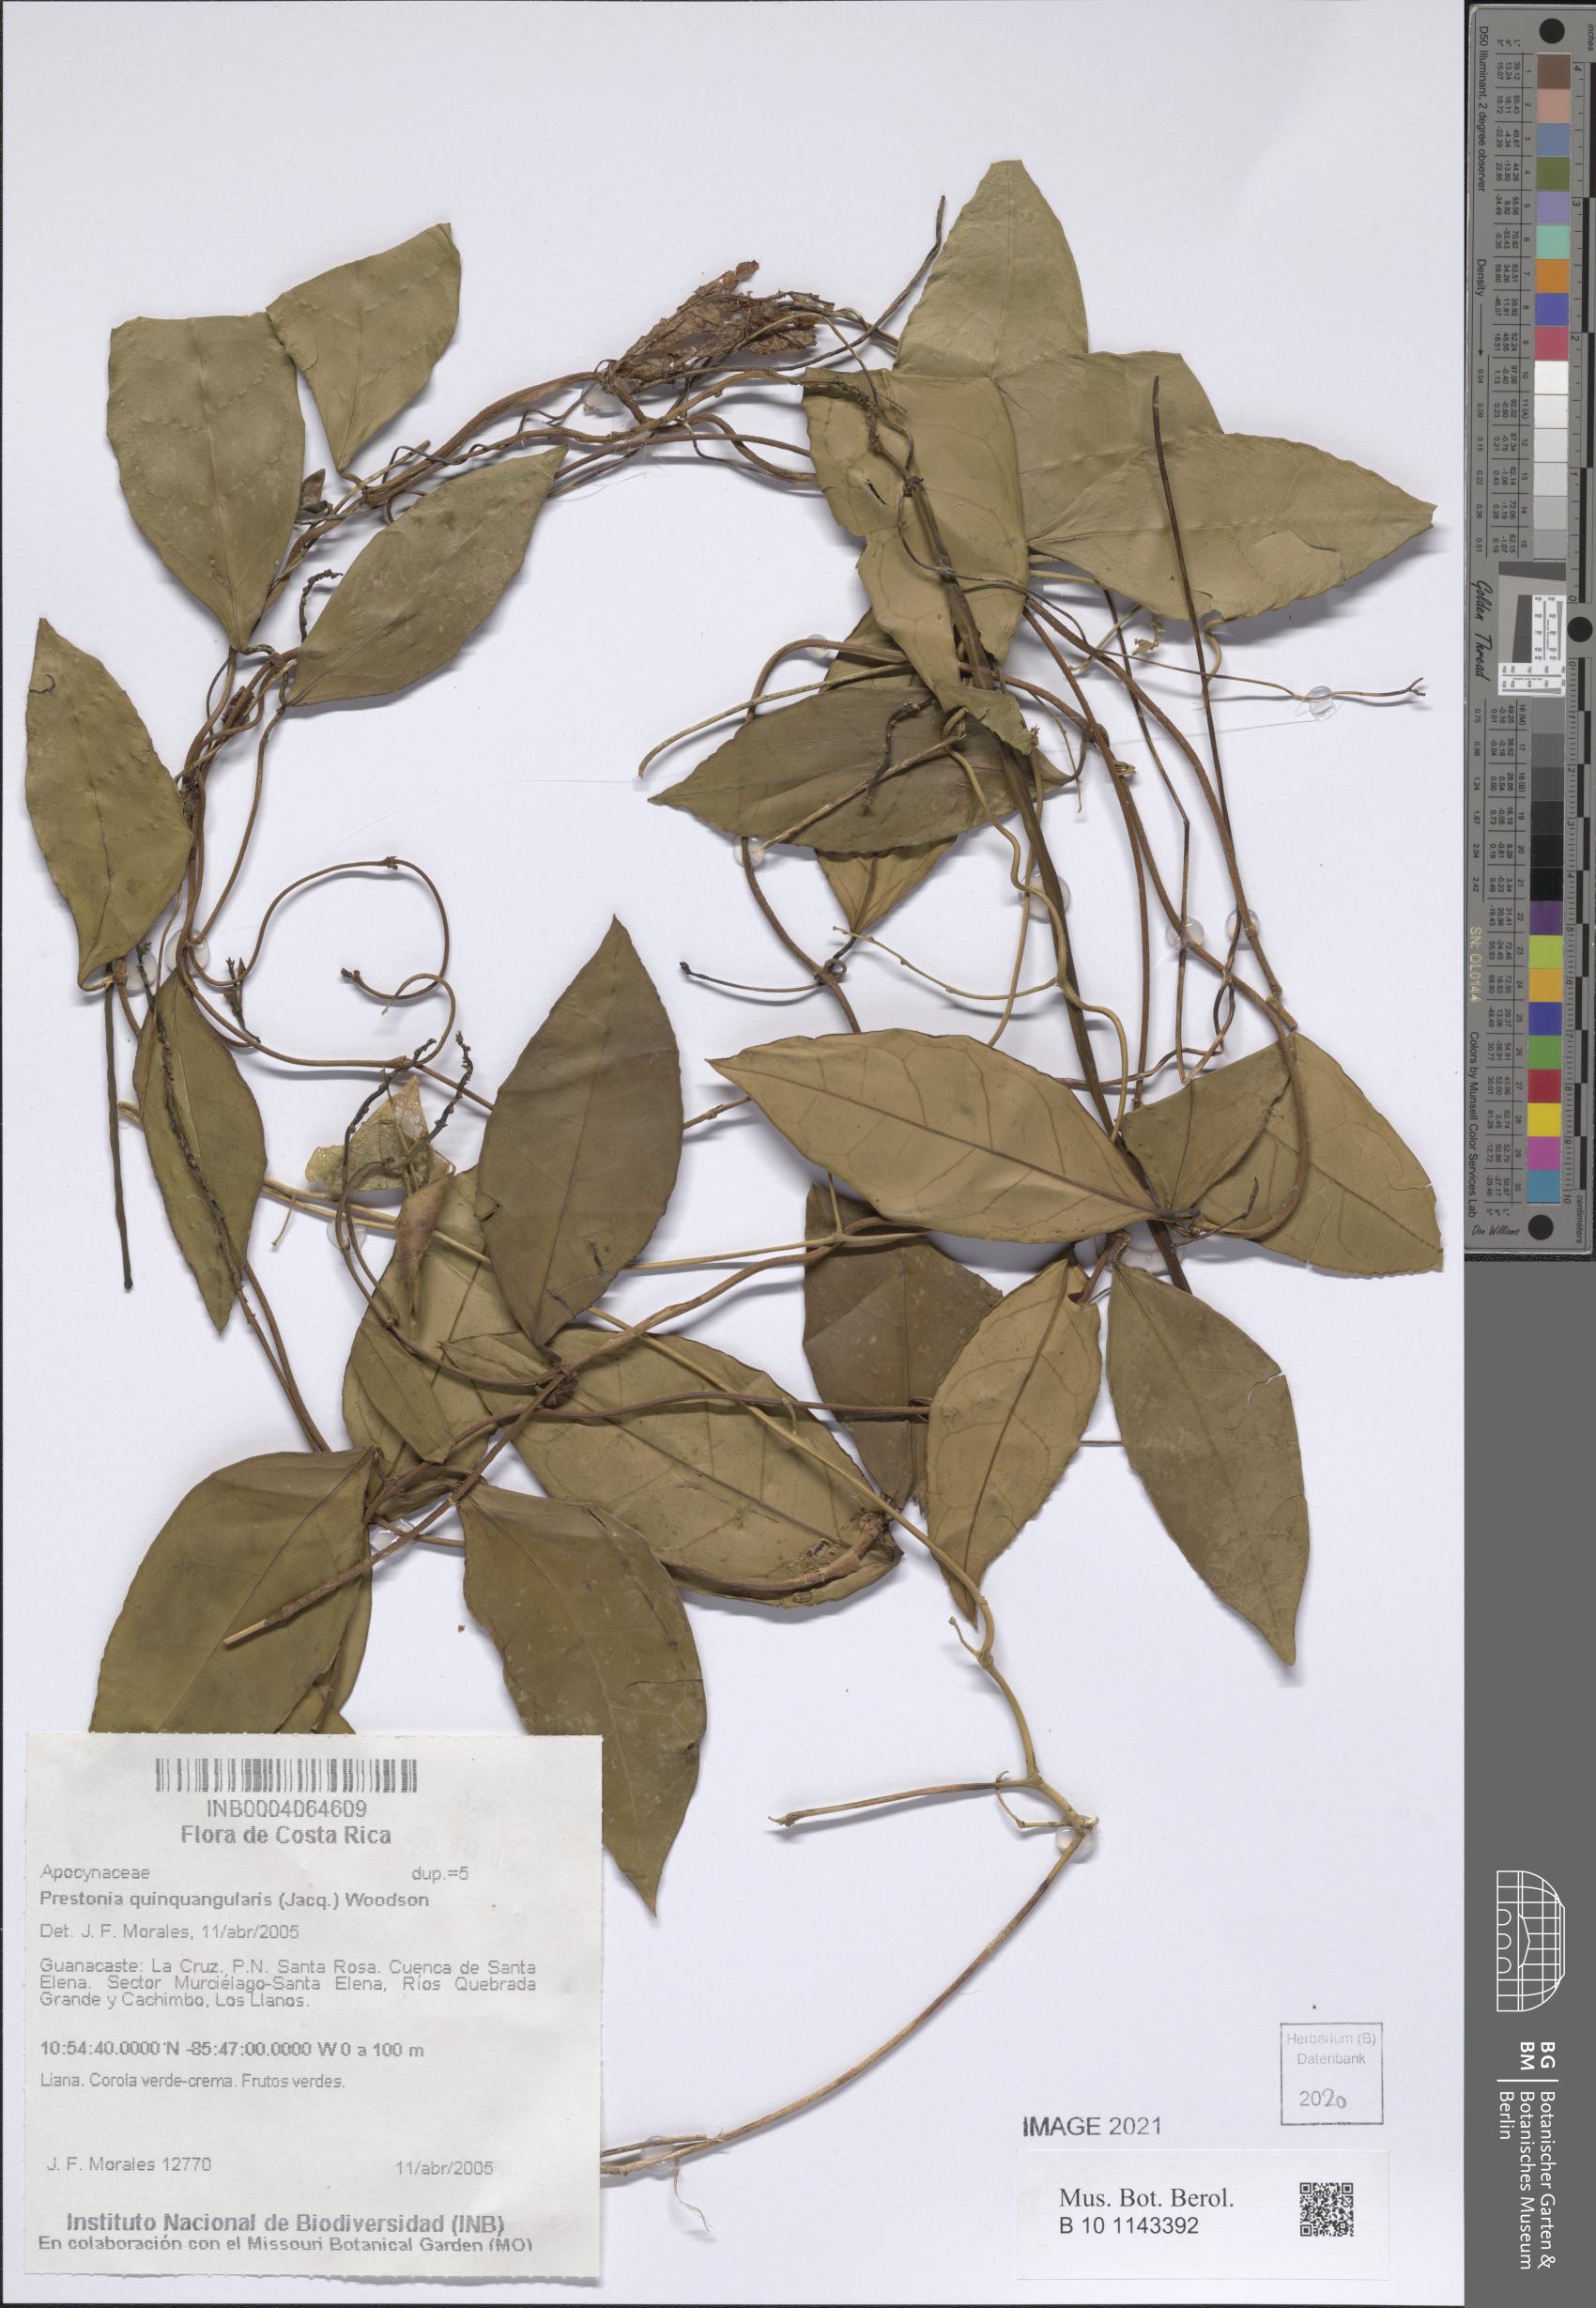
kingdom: Plantae
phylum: Tracheophyta
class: Magnoliopsida
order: Gentianales
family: Apocynaceae
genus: Prestonia
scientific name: Prestonia quinquangularis
